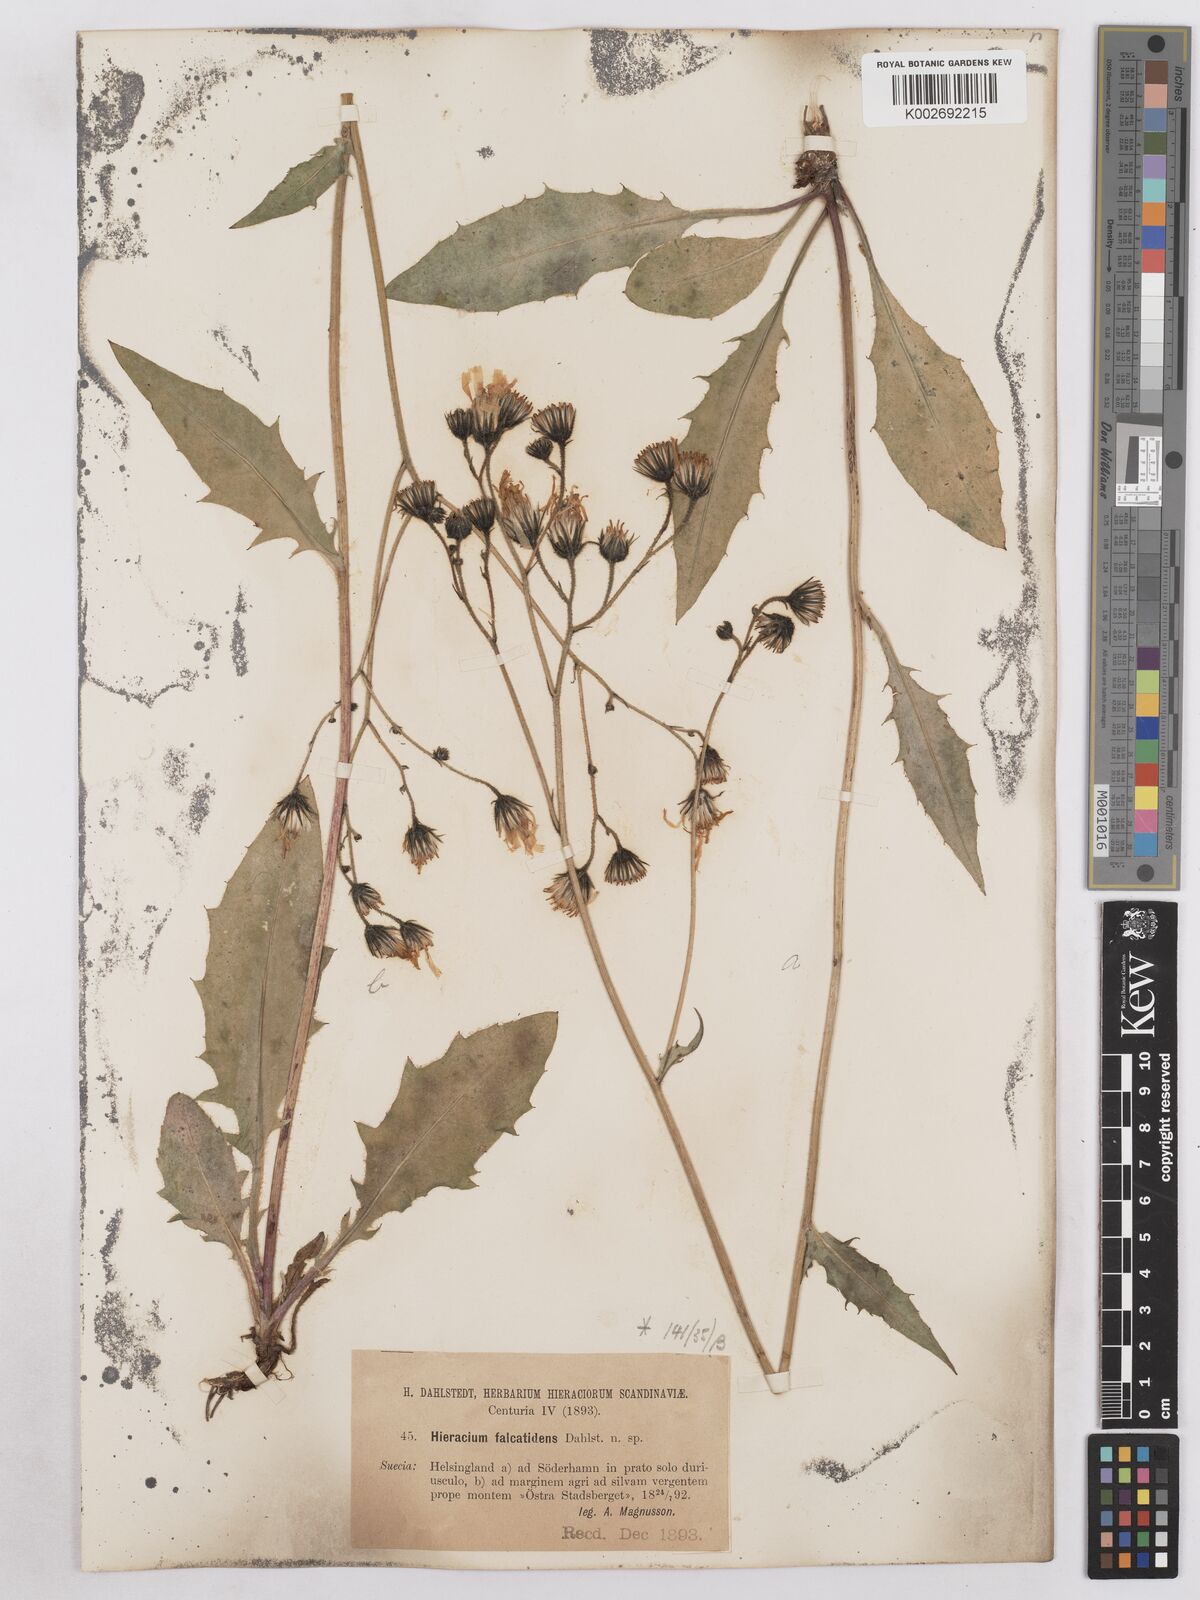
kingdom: Plantae
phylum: Tracheophyta
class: Magnoliopsida
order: Asterales
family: Asteraceae
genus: Hieracium
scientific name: Hieracium diaphanoides
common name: Fine-bracted hawkweed
